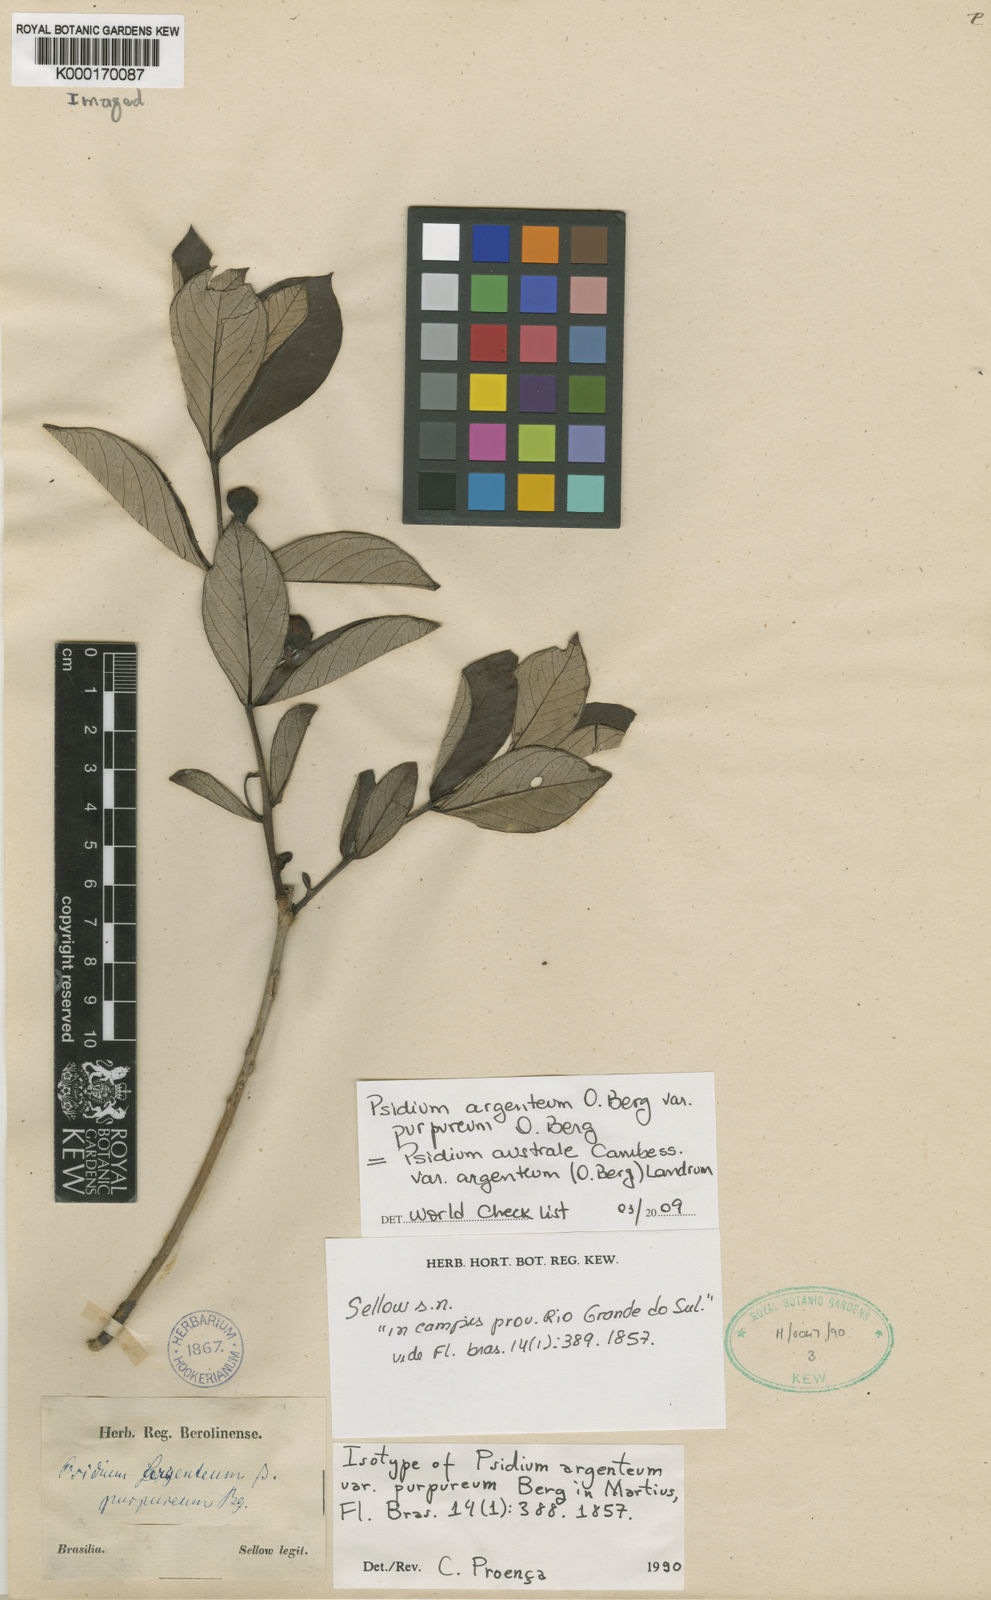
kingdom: Plantae
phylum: Tracheophyta
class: Magnoliopsida
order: Myrtales
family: Myrtaceae
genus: Psidium
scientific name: Psidium australe
